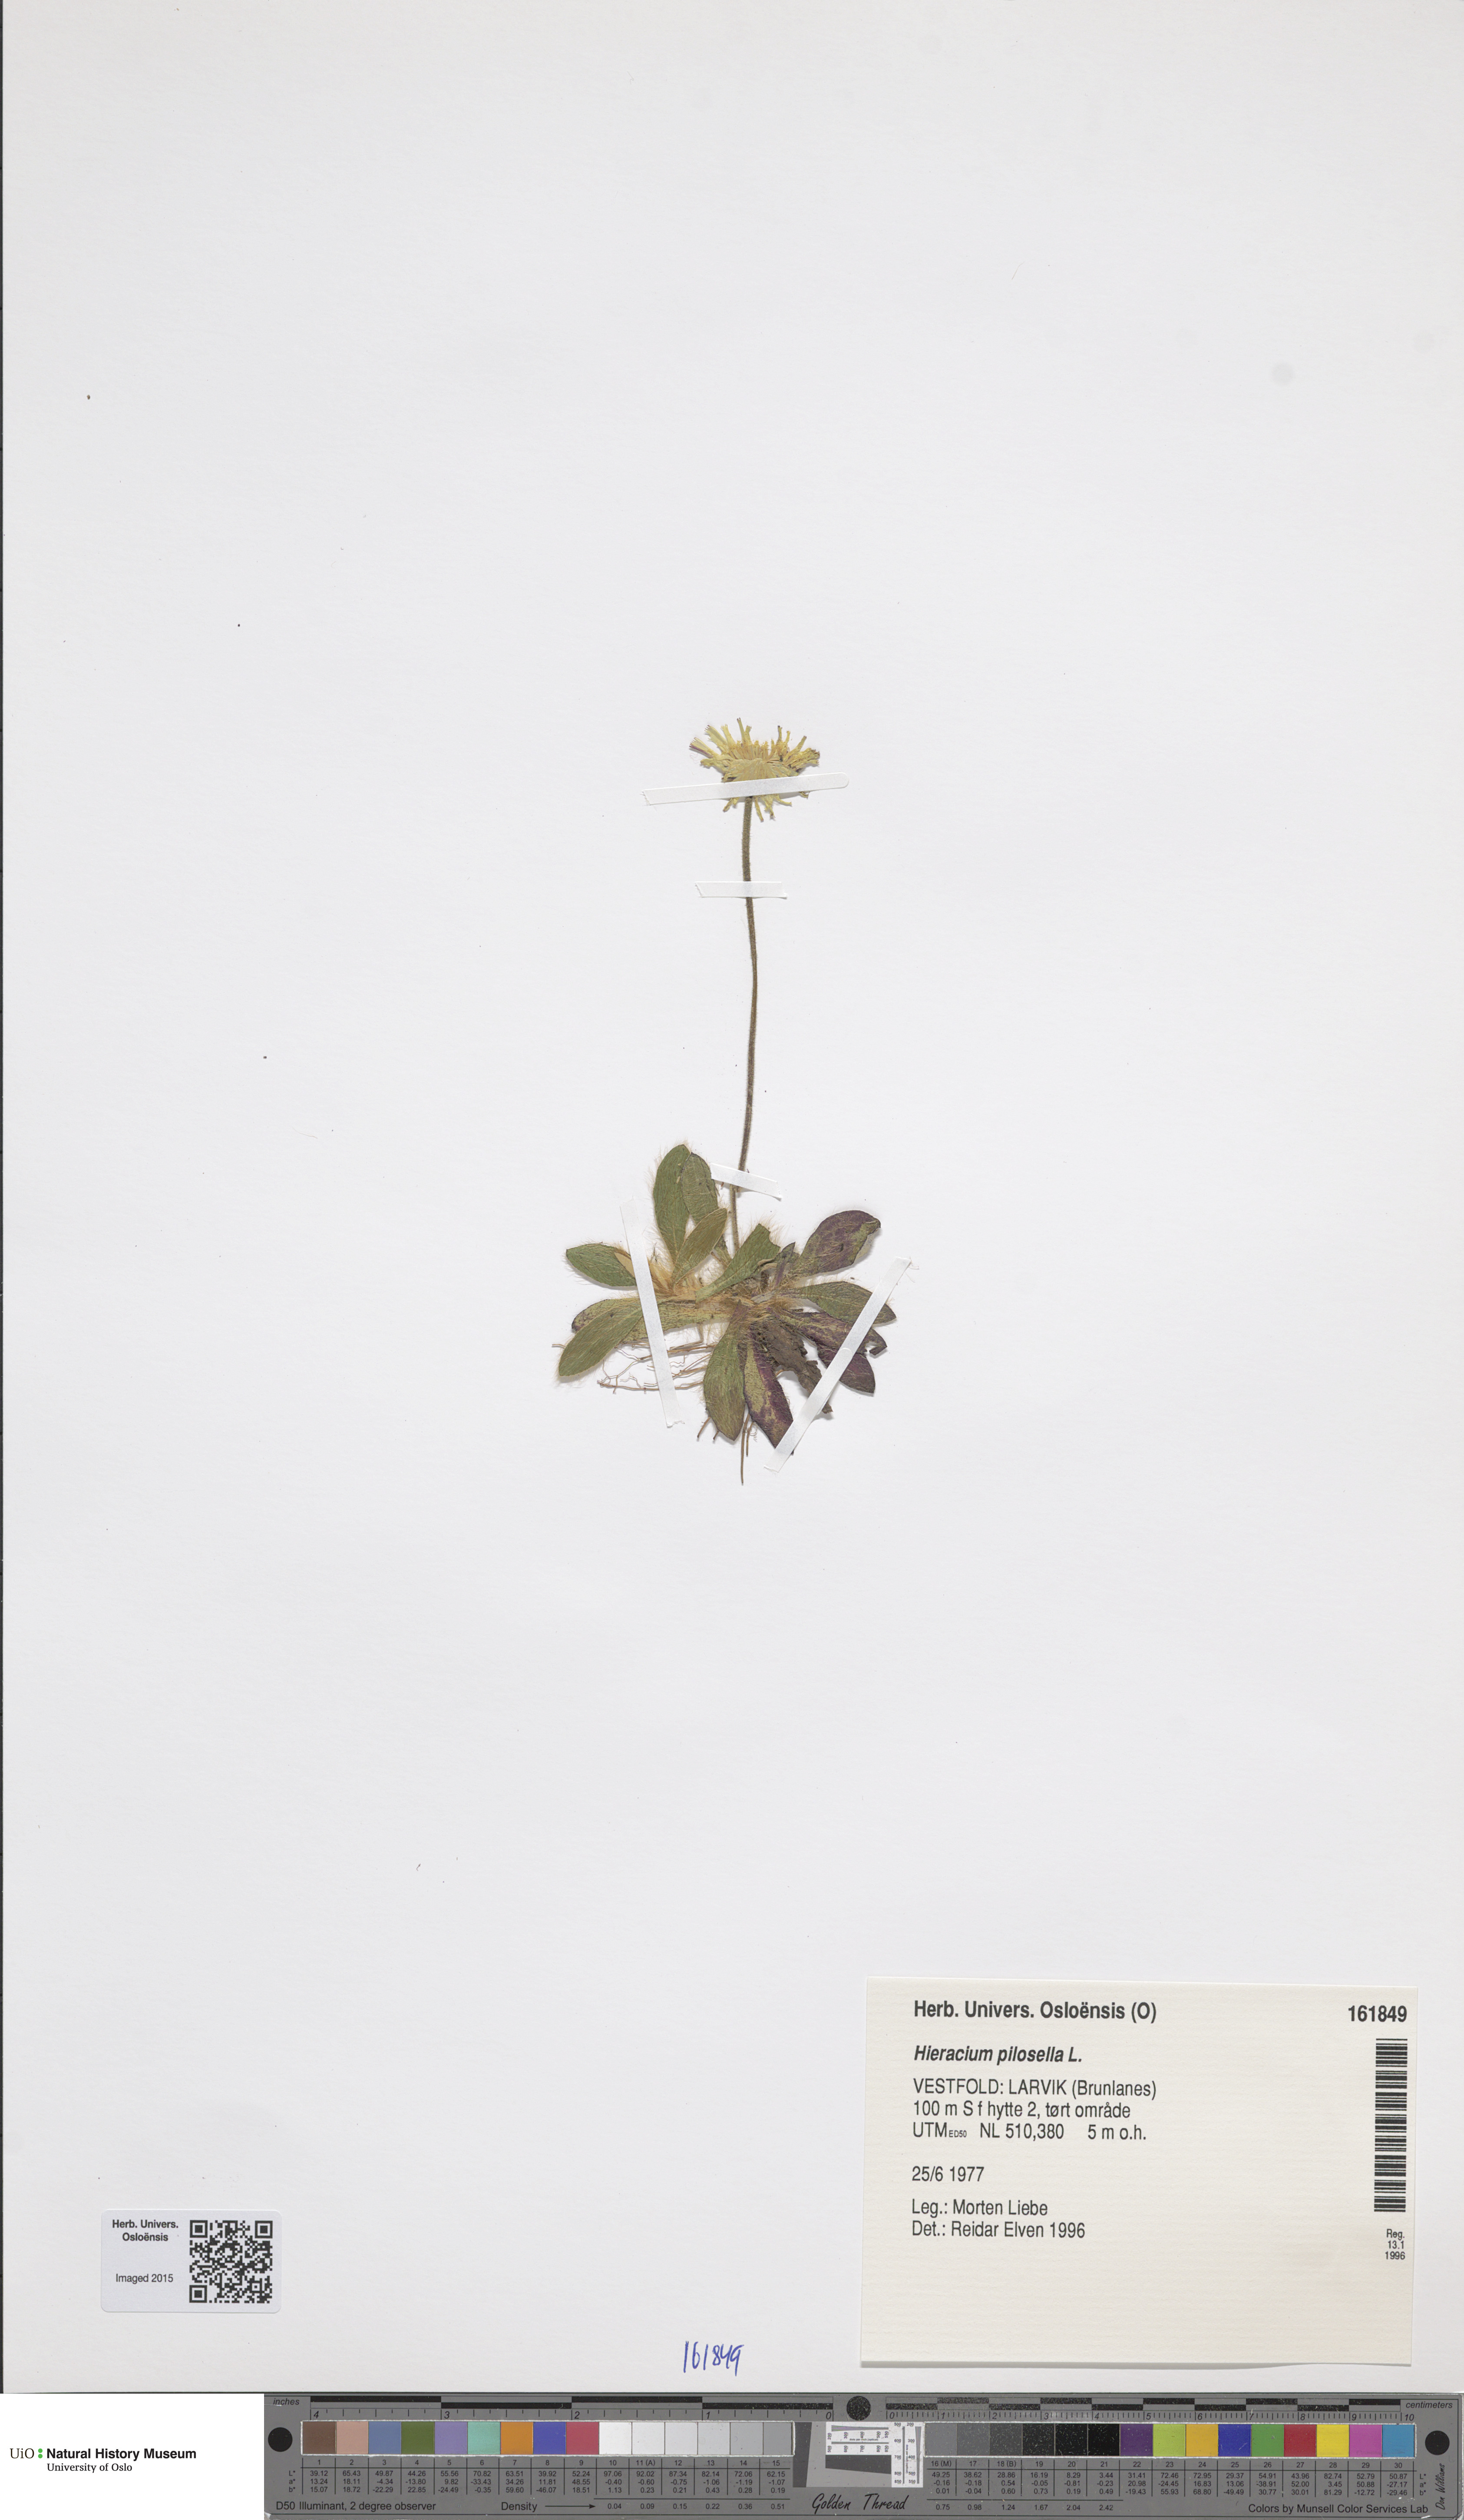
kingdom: Plantae
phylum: Tracheophyta
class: Magnoliopsida
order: Asterales
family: Asteraceae
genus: Pilosella
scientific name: Pilosella officinarum
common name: Mouse-ear hawkweed
